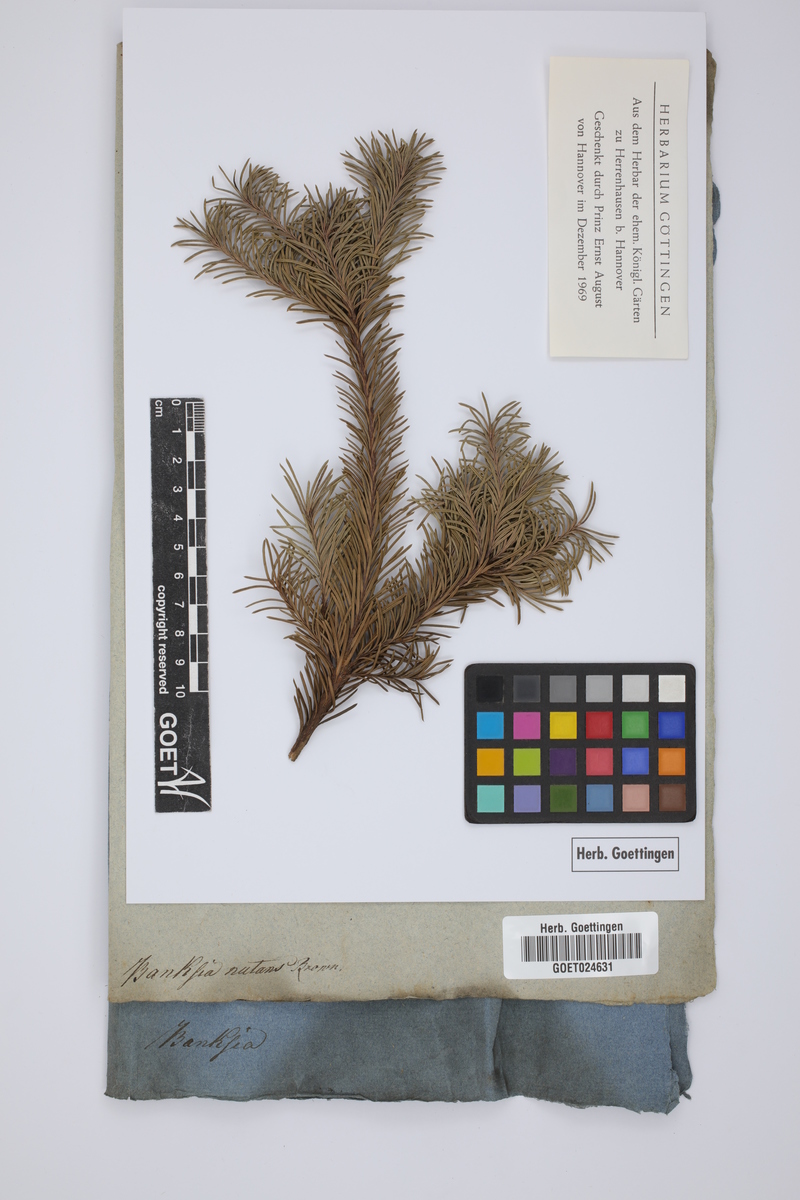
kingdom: Plantae
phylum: Tracheophyta
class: Magnoliopsida
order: Proteales
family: Proteaceae
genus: Banksia
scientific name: Banksia nutans
